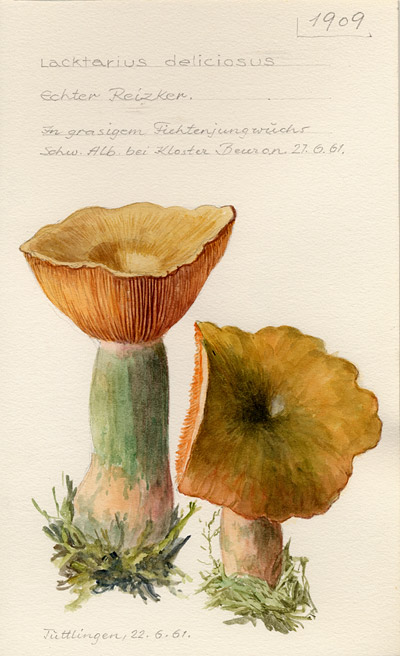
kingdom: Fungi
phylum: Basidiomycota
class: Agaricomycetes
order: Russulales
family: Russulaceae
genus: Lactarius
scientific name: Lactarius deterrimus
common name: False saffron milkcap
